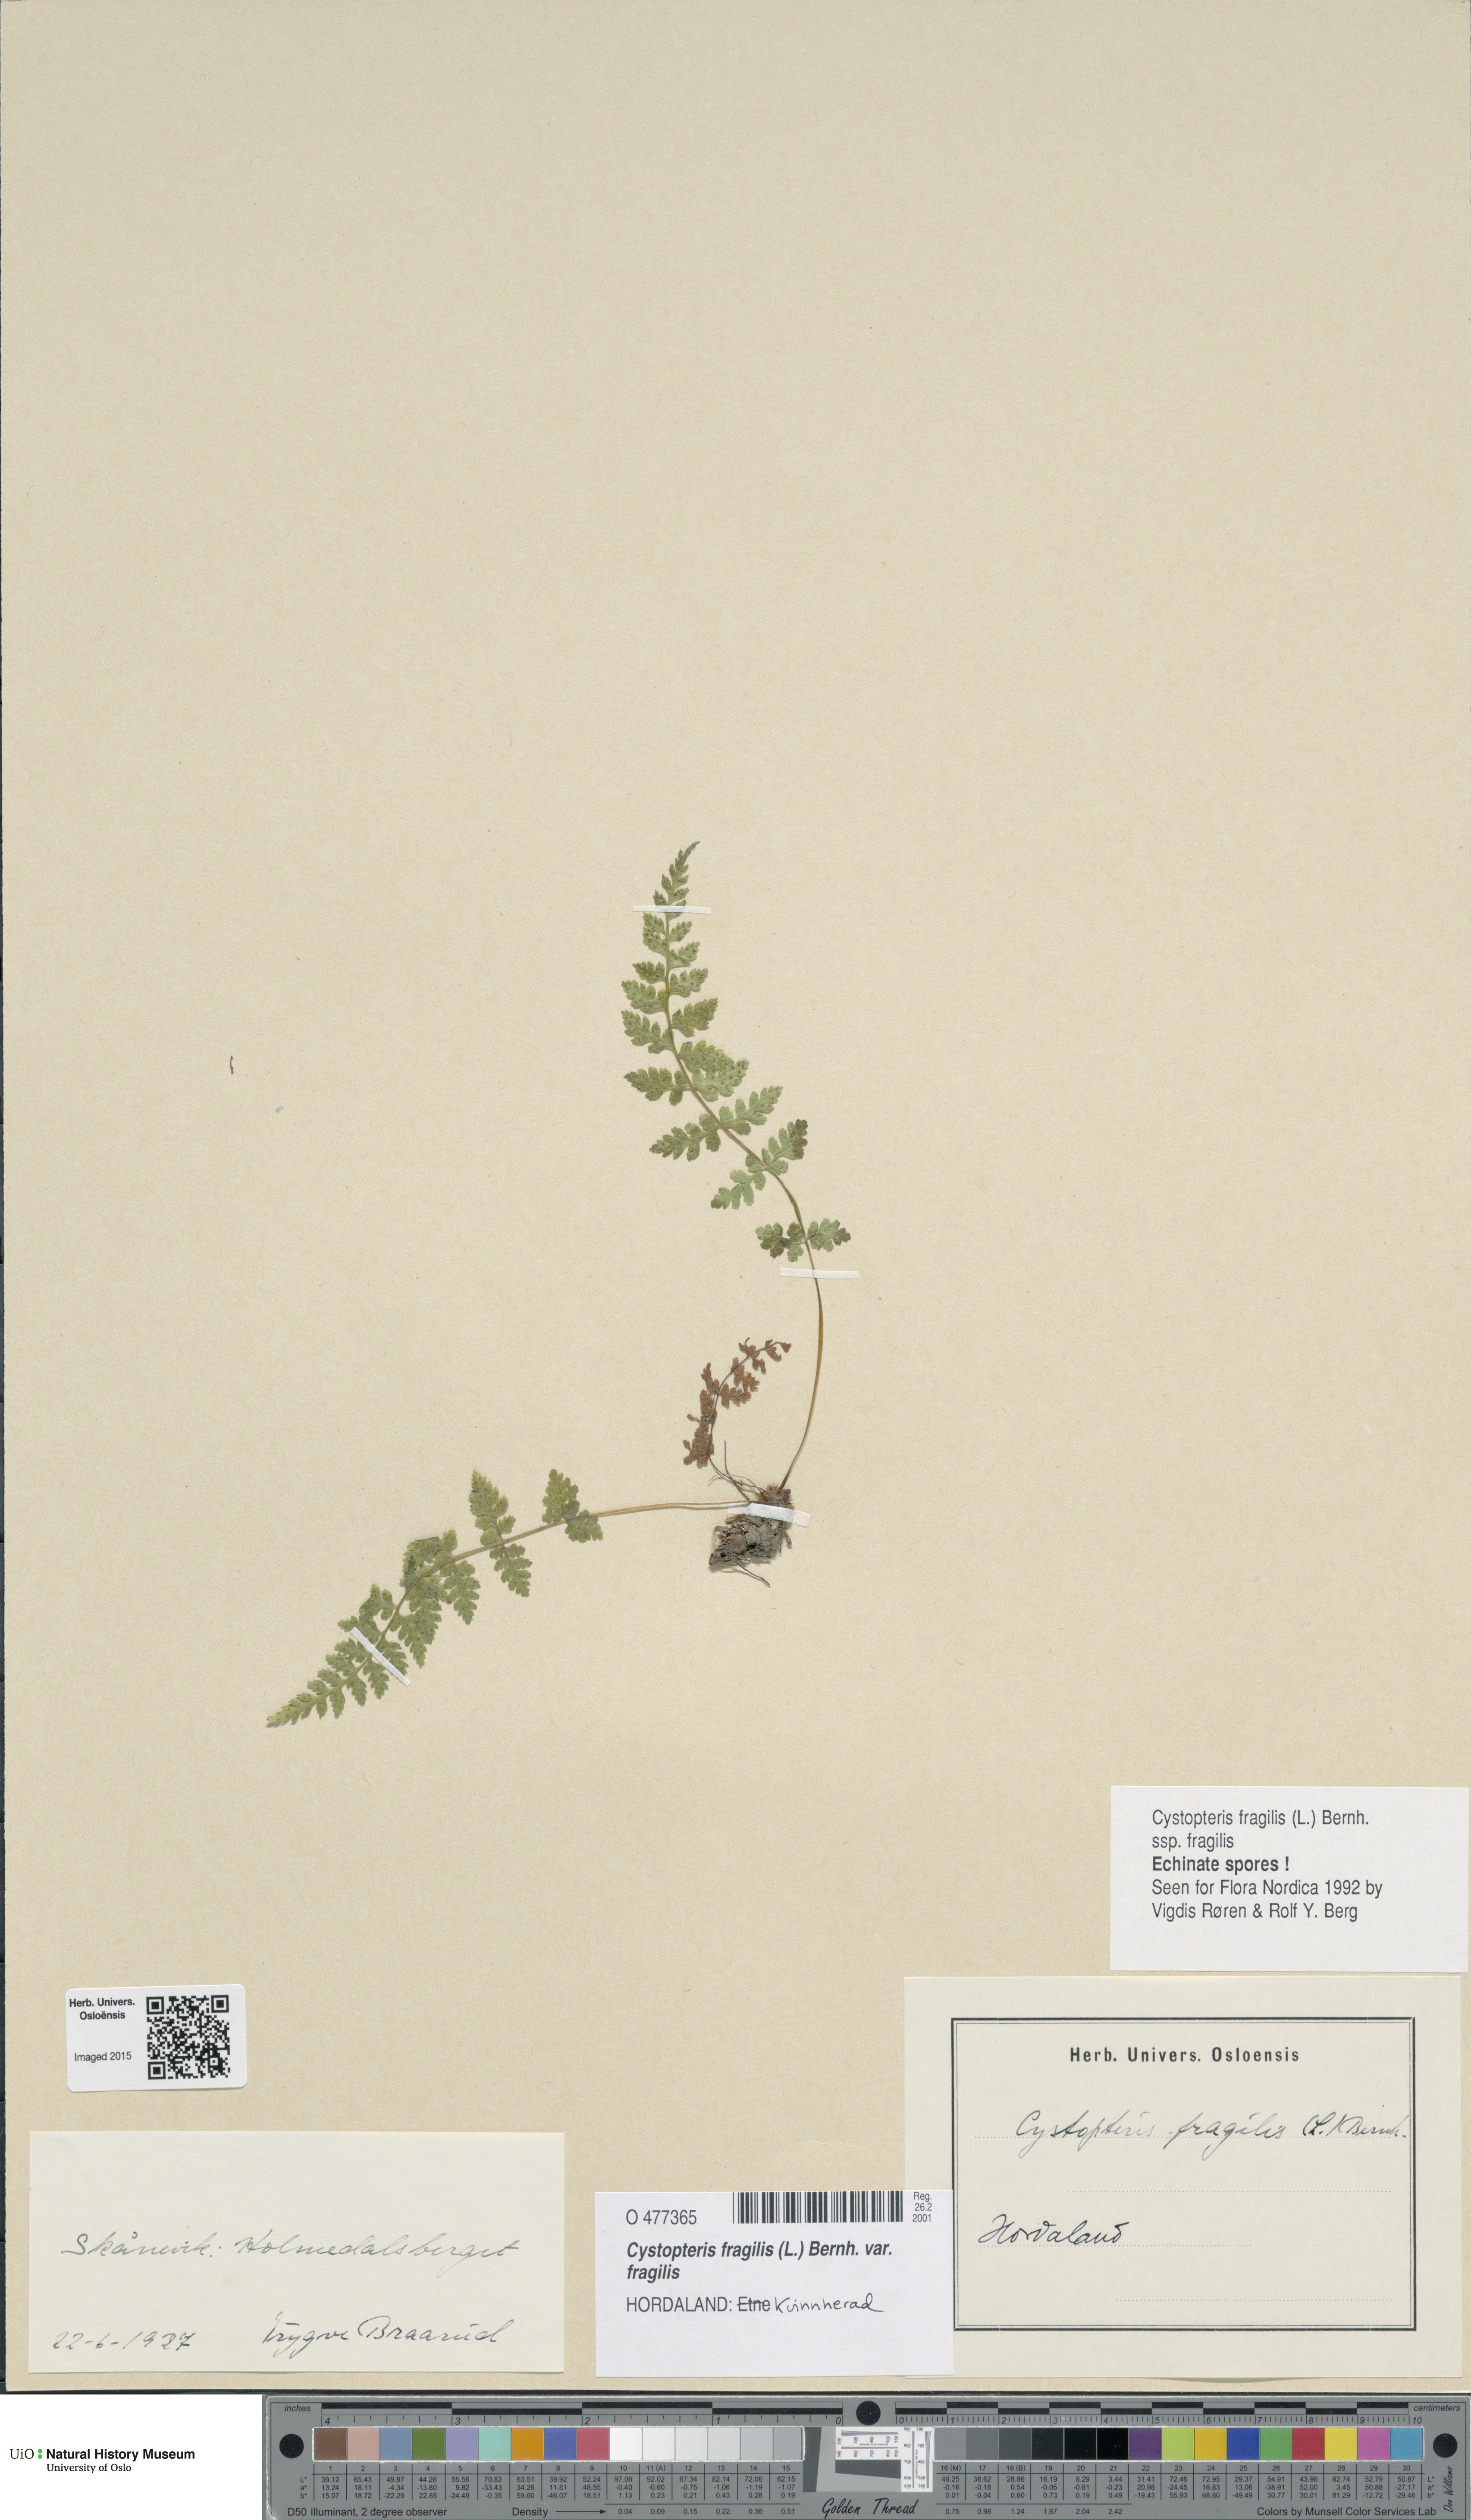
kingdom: Plantae
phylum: Tracheophyta
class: Polypodiopsida
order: Polypodiales
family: Cystopteridaceae
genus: Cystopteris
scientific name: Cystopteris fragilis
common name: Brittle bladder fern
